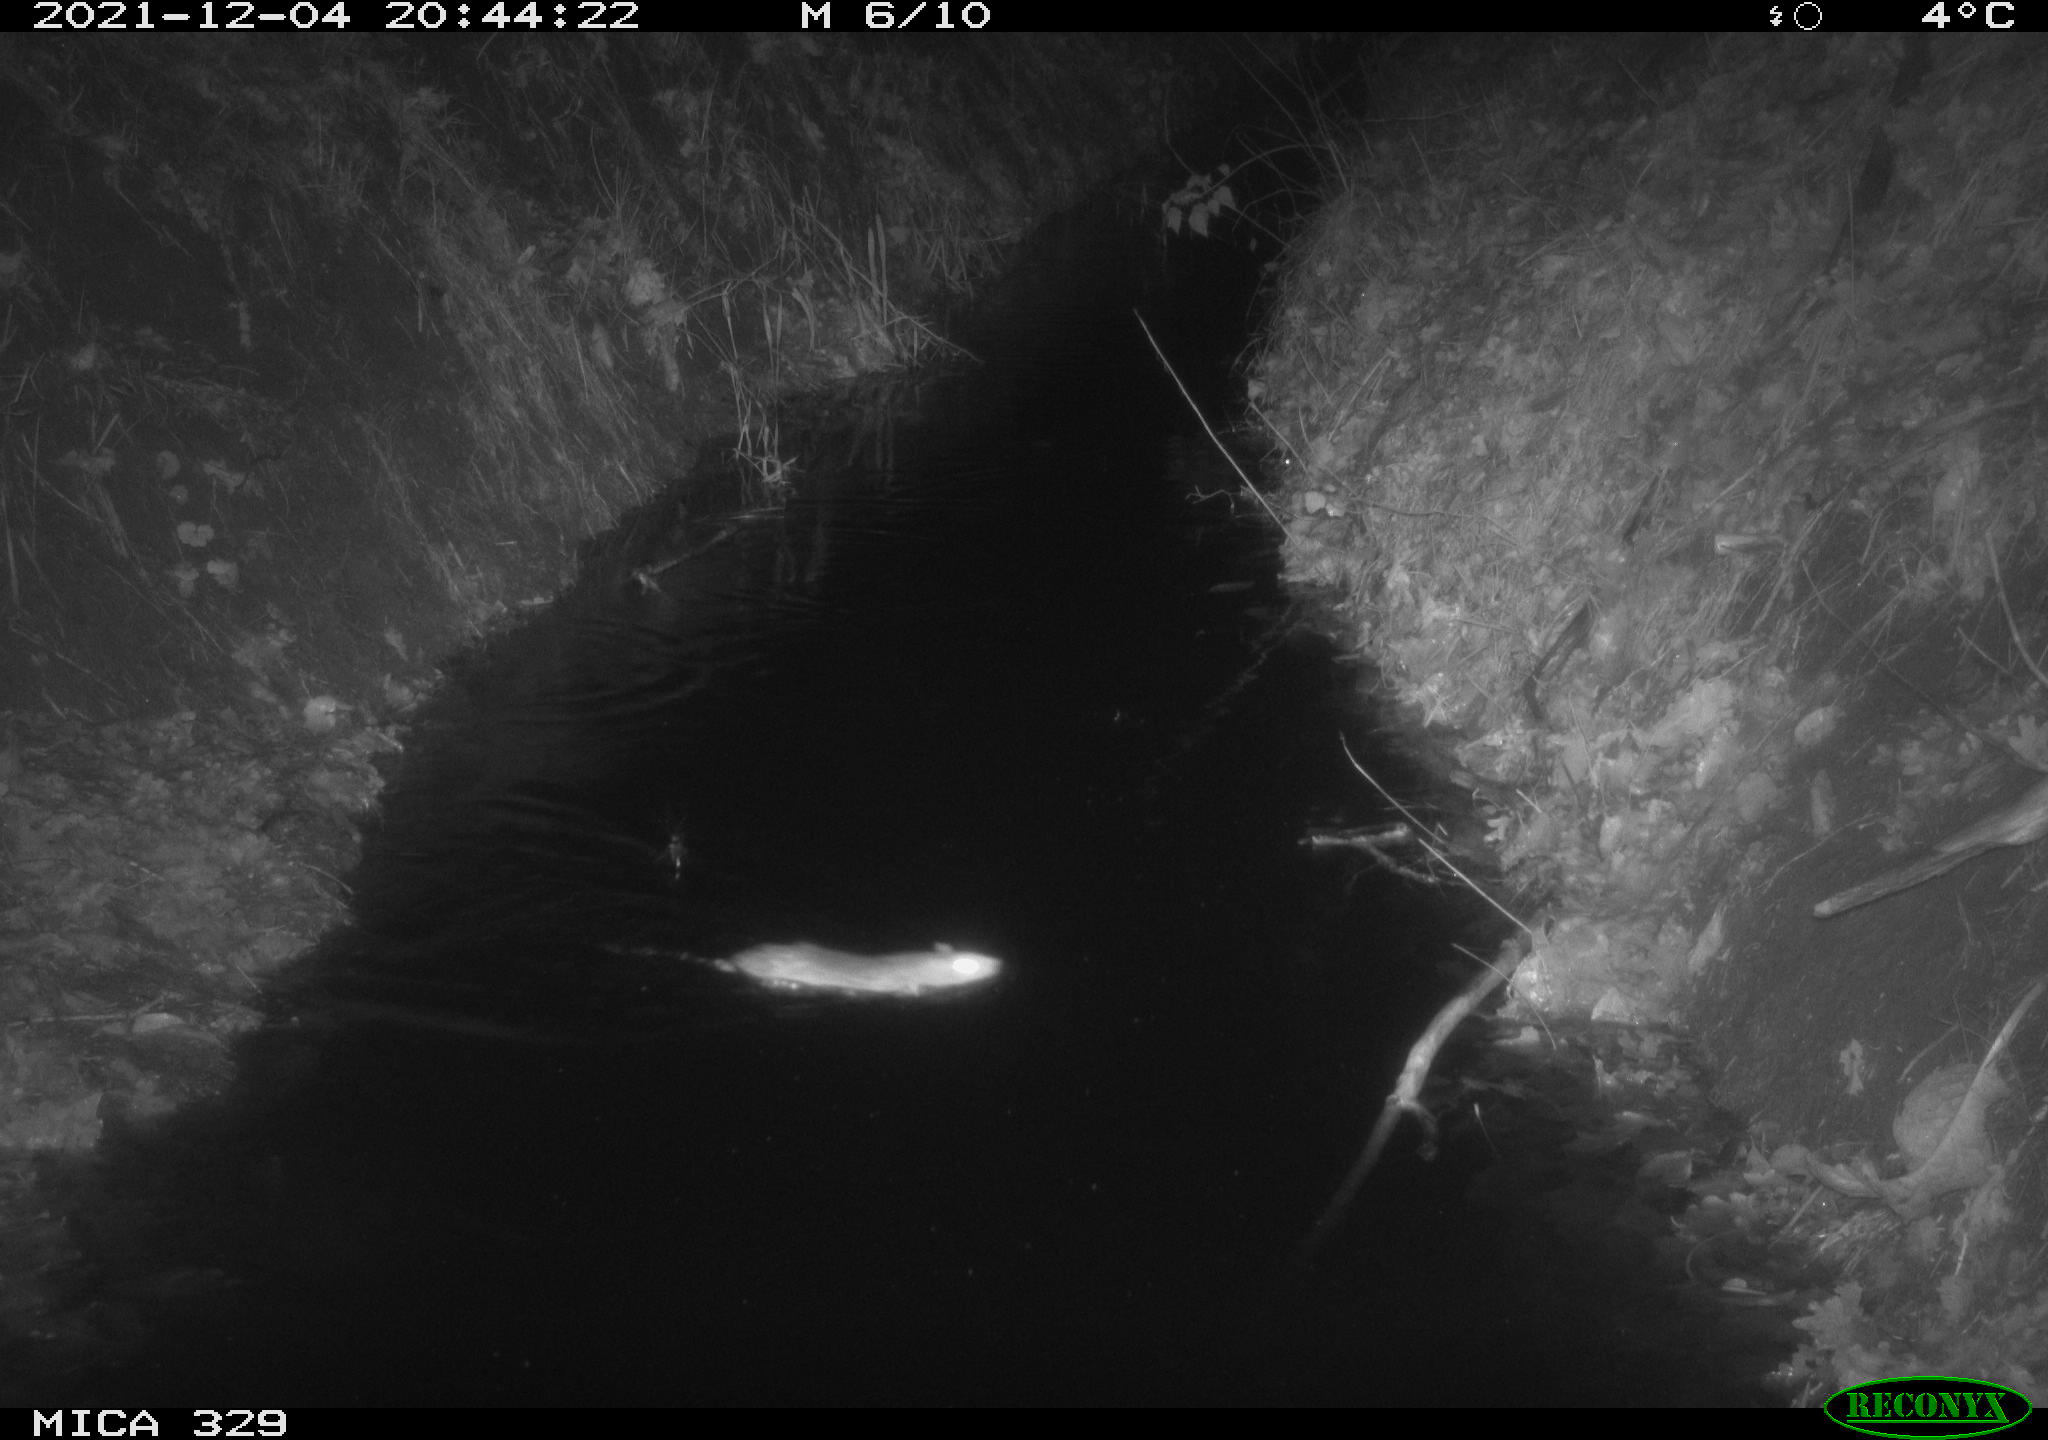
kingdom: Animalia
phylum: Chordata
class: Mammalia
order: Rodentia
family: Muridae
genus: Rattus
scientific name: Rattus norvegicus
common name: Brown rat
